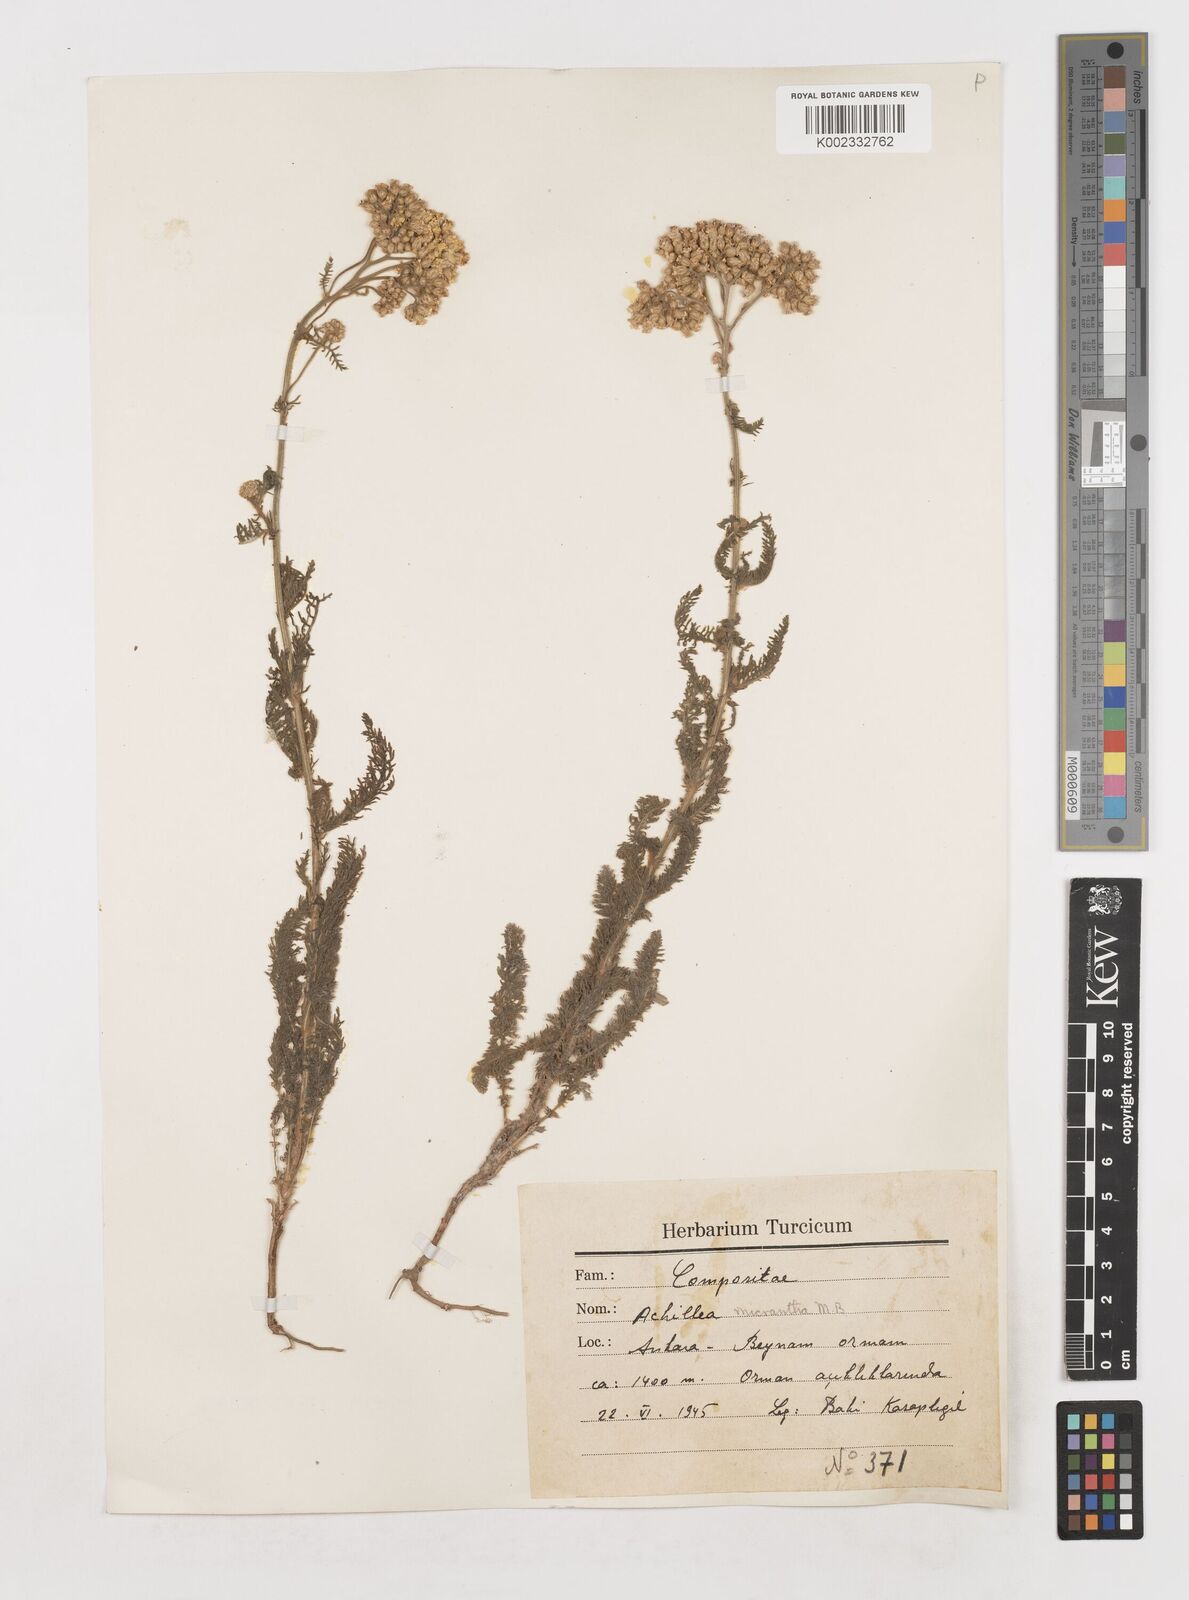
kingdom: Plantae
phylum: Tracheophyta
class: Magnoliopsida
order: Asterales
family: Asteraceae
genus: Achillea
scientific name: Achillea micrantha
